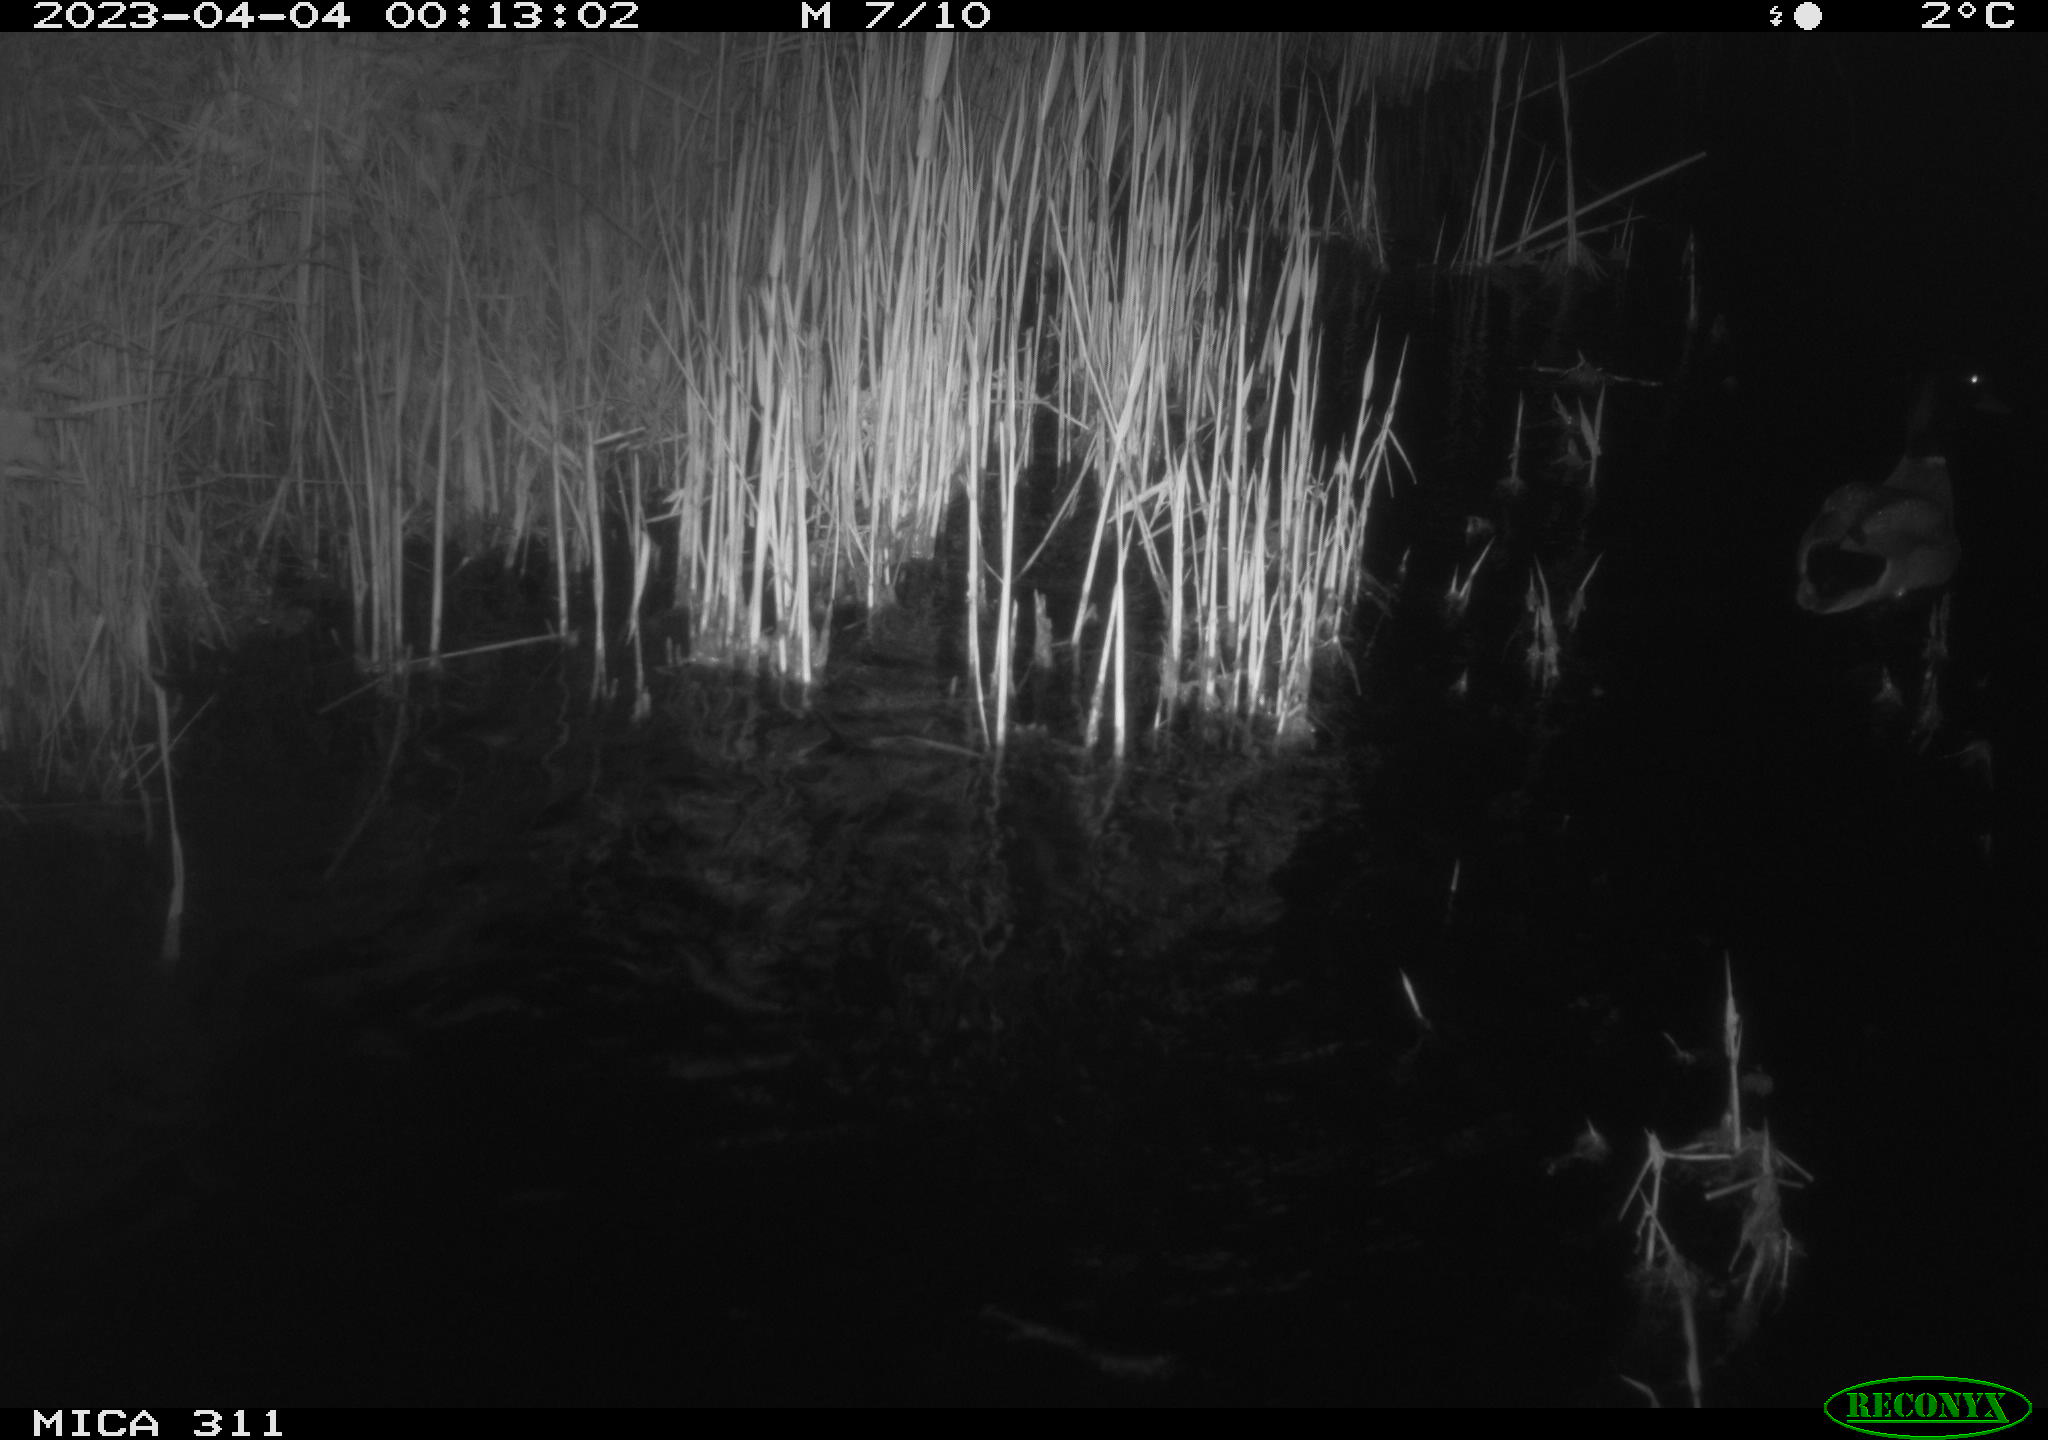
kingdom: Animalia
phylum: Chordata
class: Aves
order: Anseriformes
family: Anatidae
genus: Anas
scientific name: Anas
